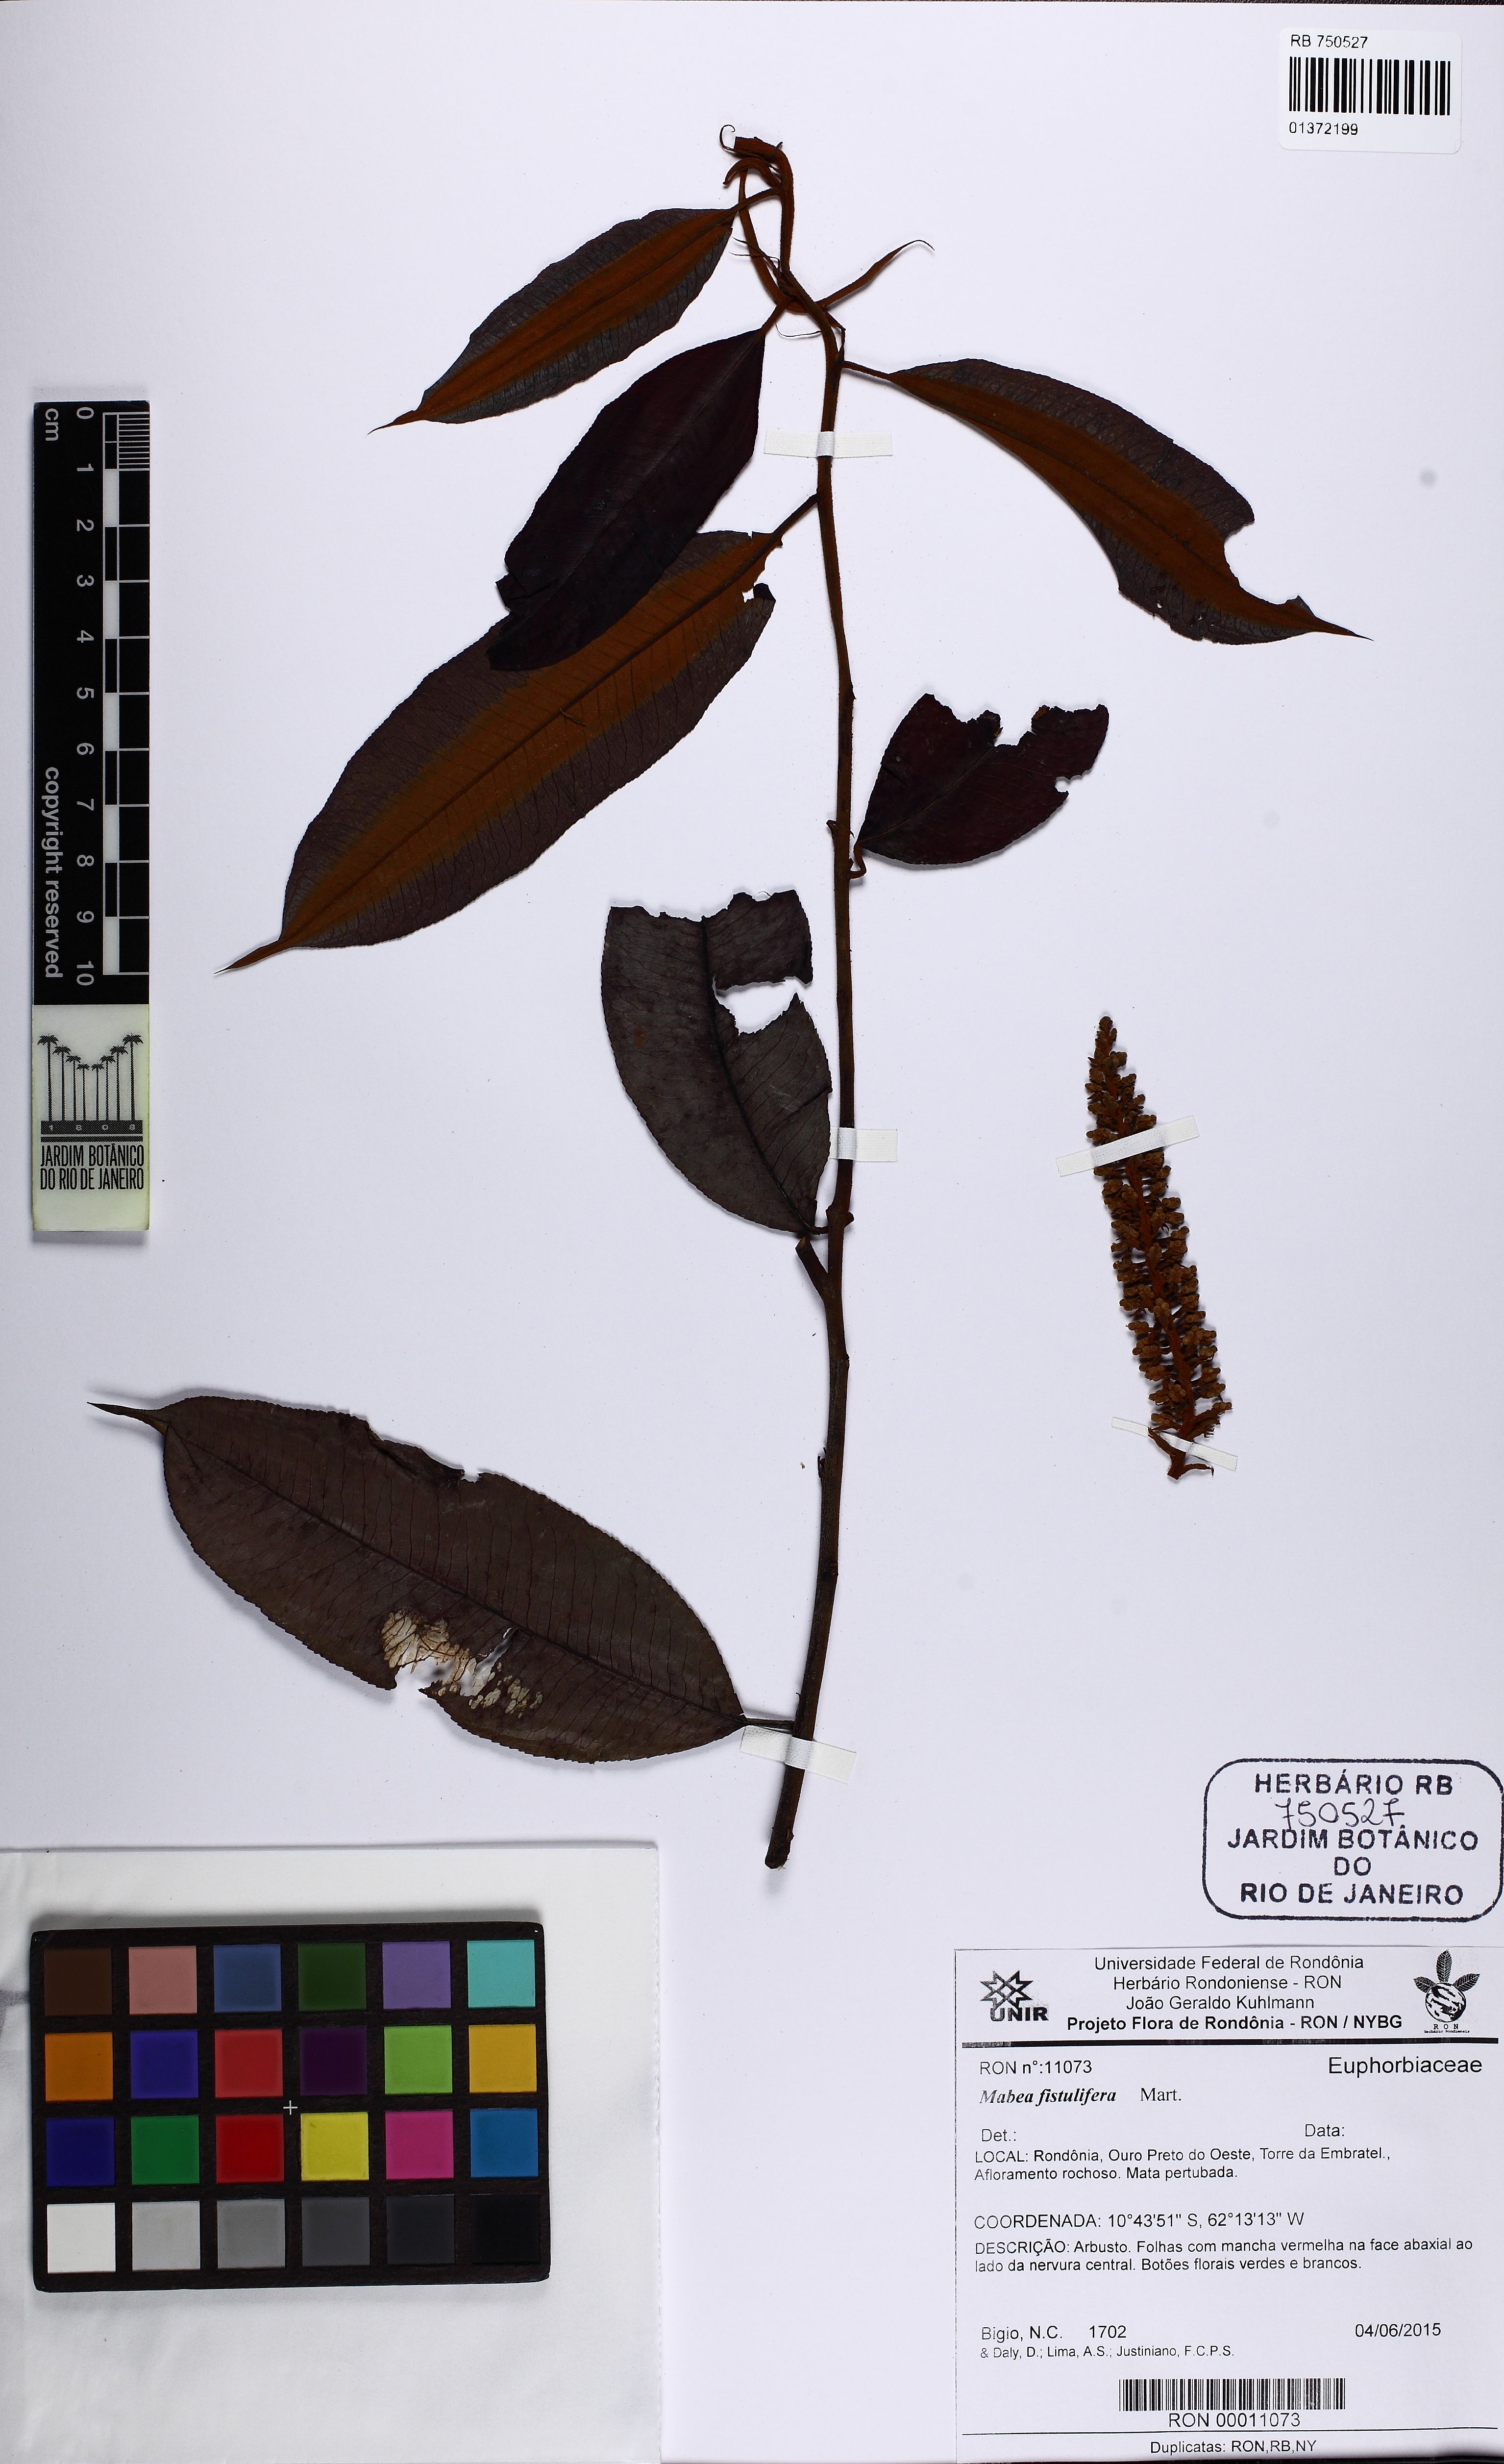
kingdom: Plantae
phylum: Tracheophyta
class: Magnoliopsida
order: Malpighiales
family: Euphorbiaceae
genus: Mabea
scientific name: Mabea fistulifera
